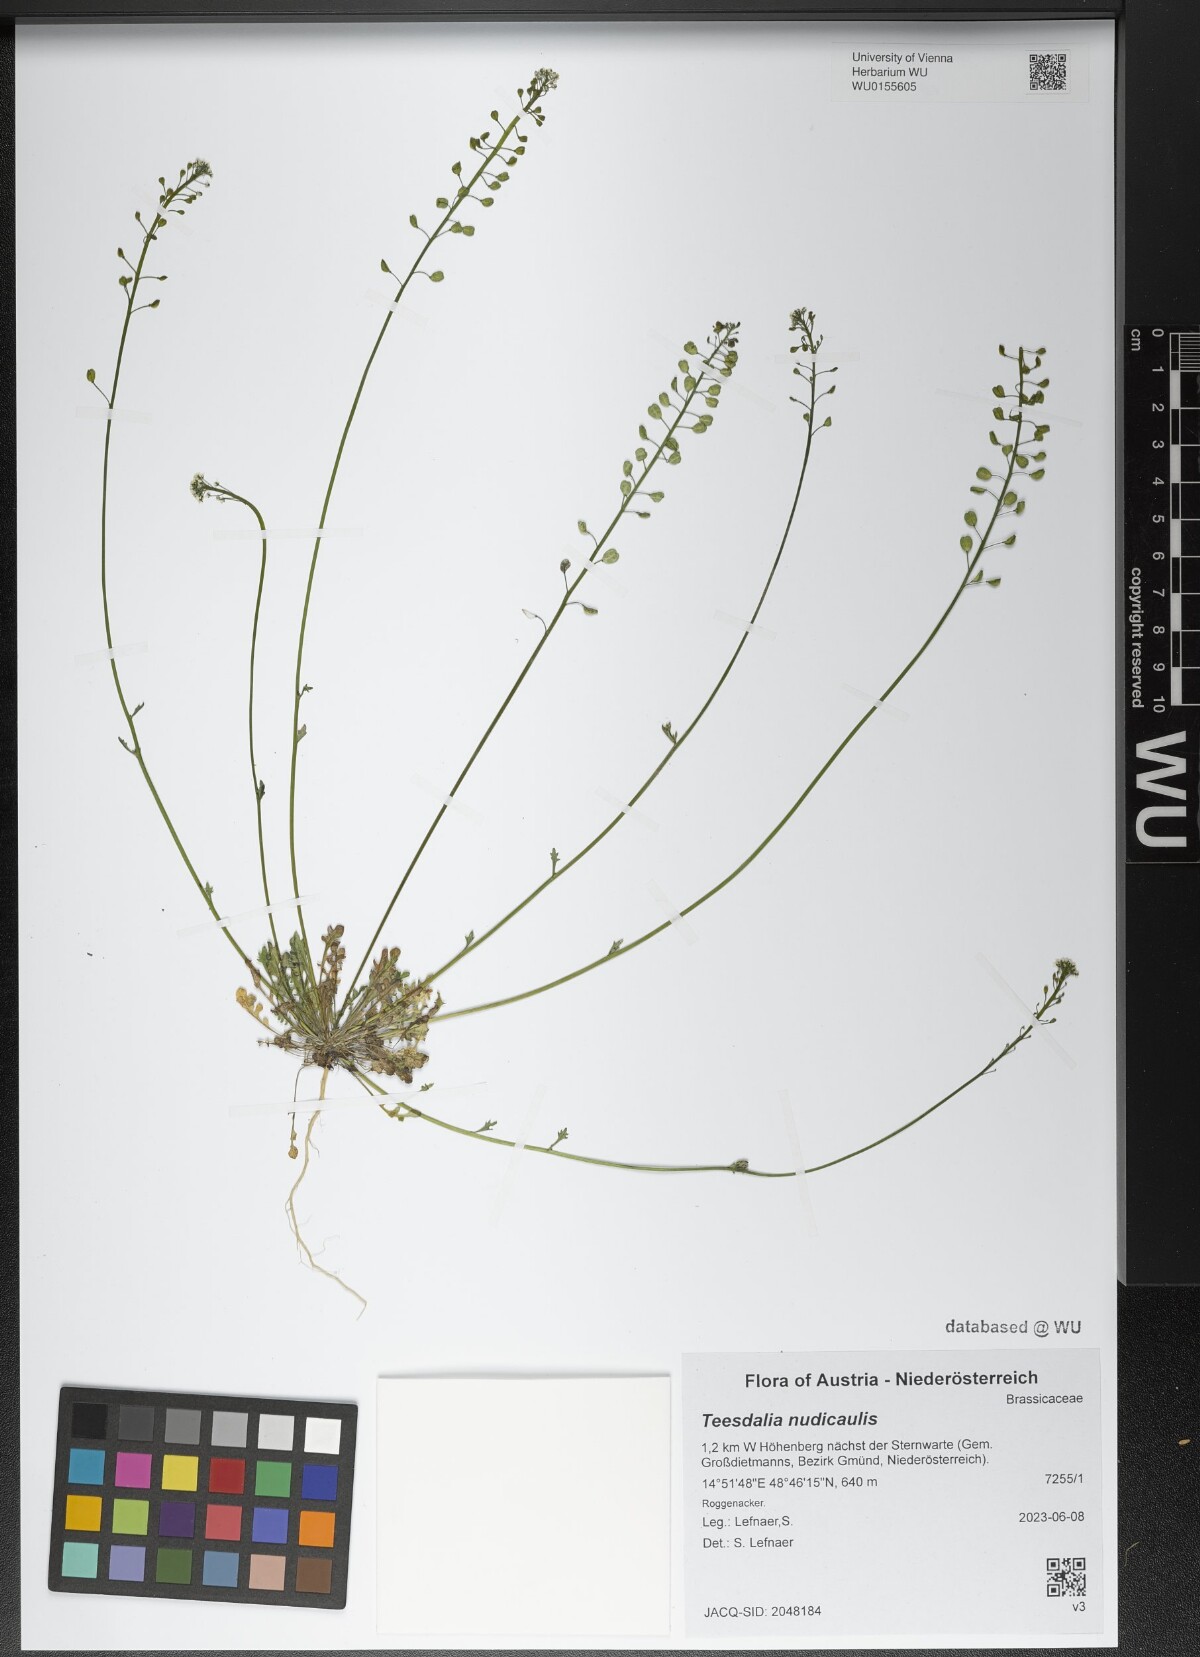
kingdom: Plantae
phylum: Tracheophyta
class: Magnoliopsida
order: Brassicales
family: Brassicaceae
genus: Teesdalia
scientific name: Teesdalia nudicaulis
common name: Shepherd's cress
